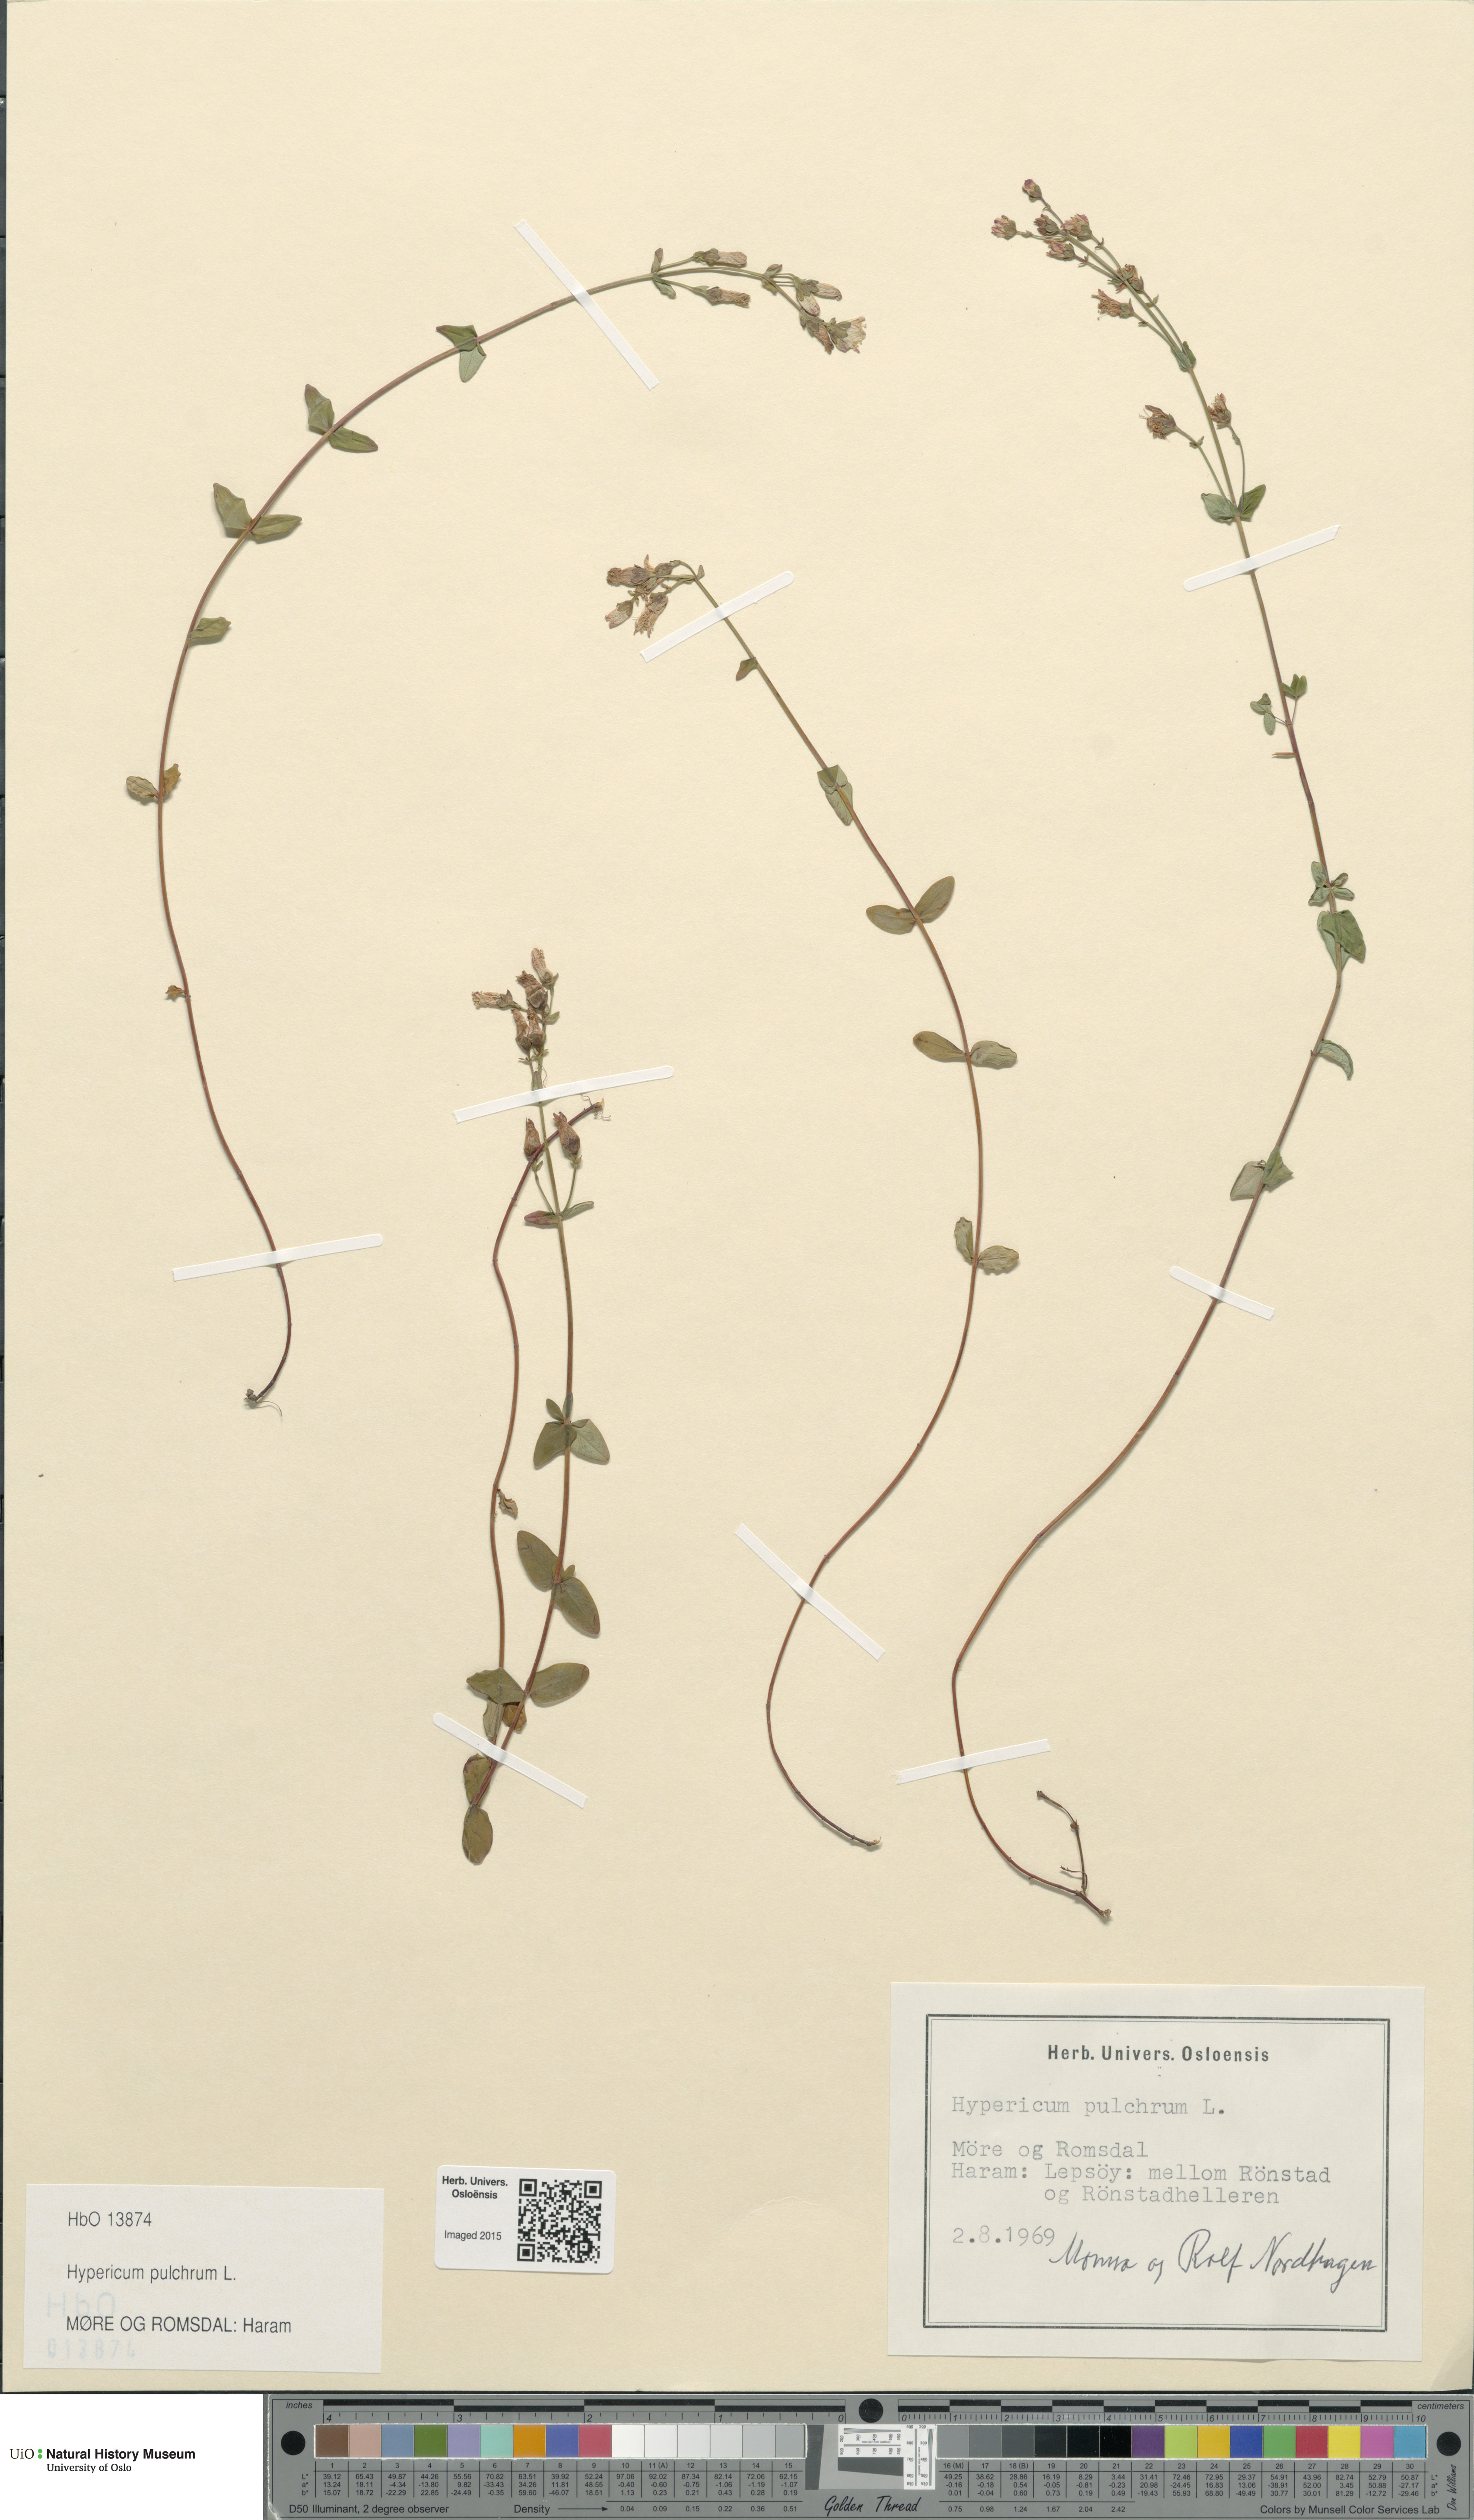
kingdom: Plantae
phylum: Tracheophyta
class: Magnoliopsida
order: Malpighiales
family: Hypericaceae
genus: Hypericum
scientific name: Hypericum pulchrum
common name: Slender st. john's-wort
